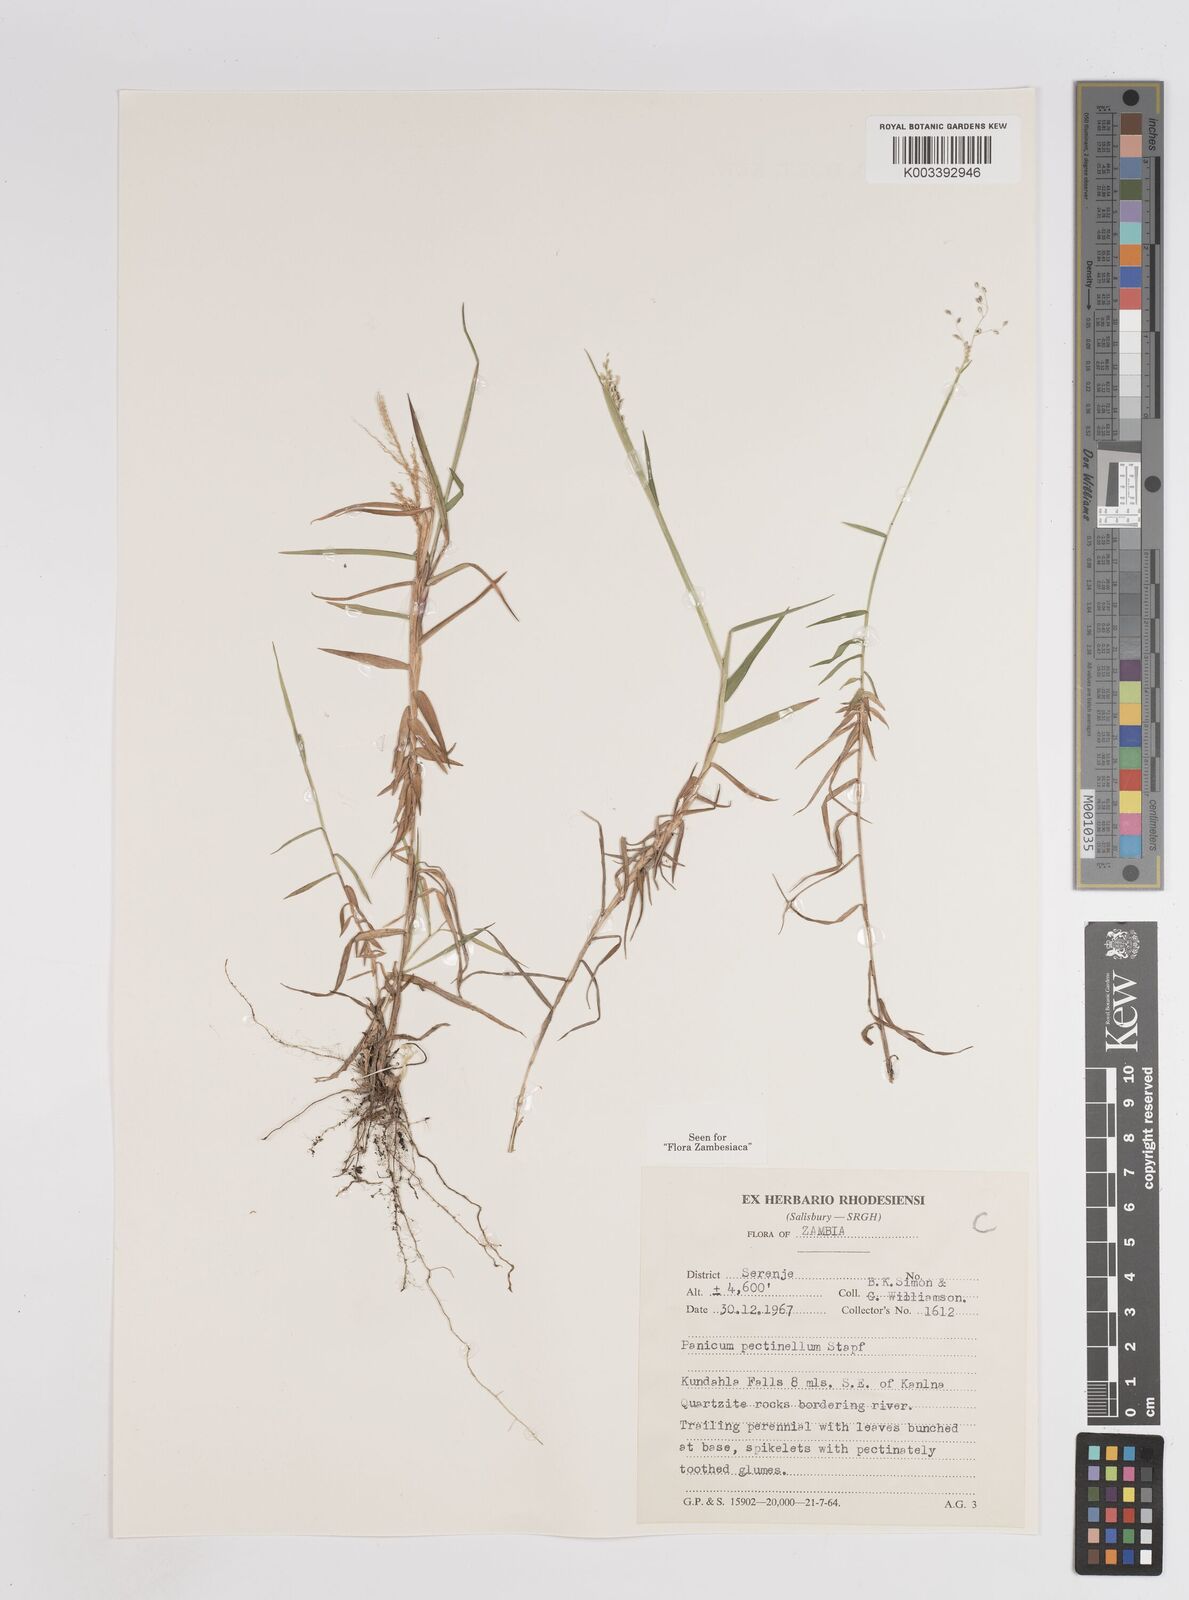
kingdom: Plantae
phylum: Tracheophyta
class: Liliopsida
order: Poales
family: Poaceae
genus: Adenochloa
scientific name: Adenochloa pectinella
